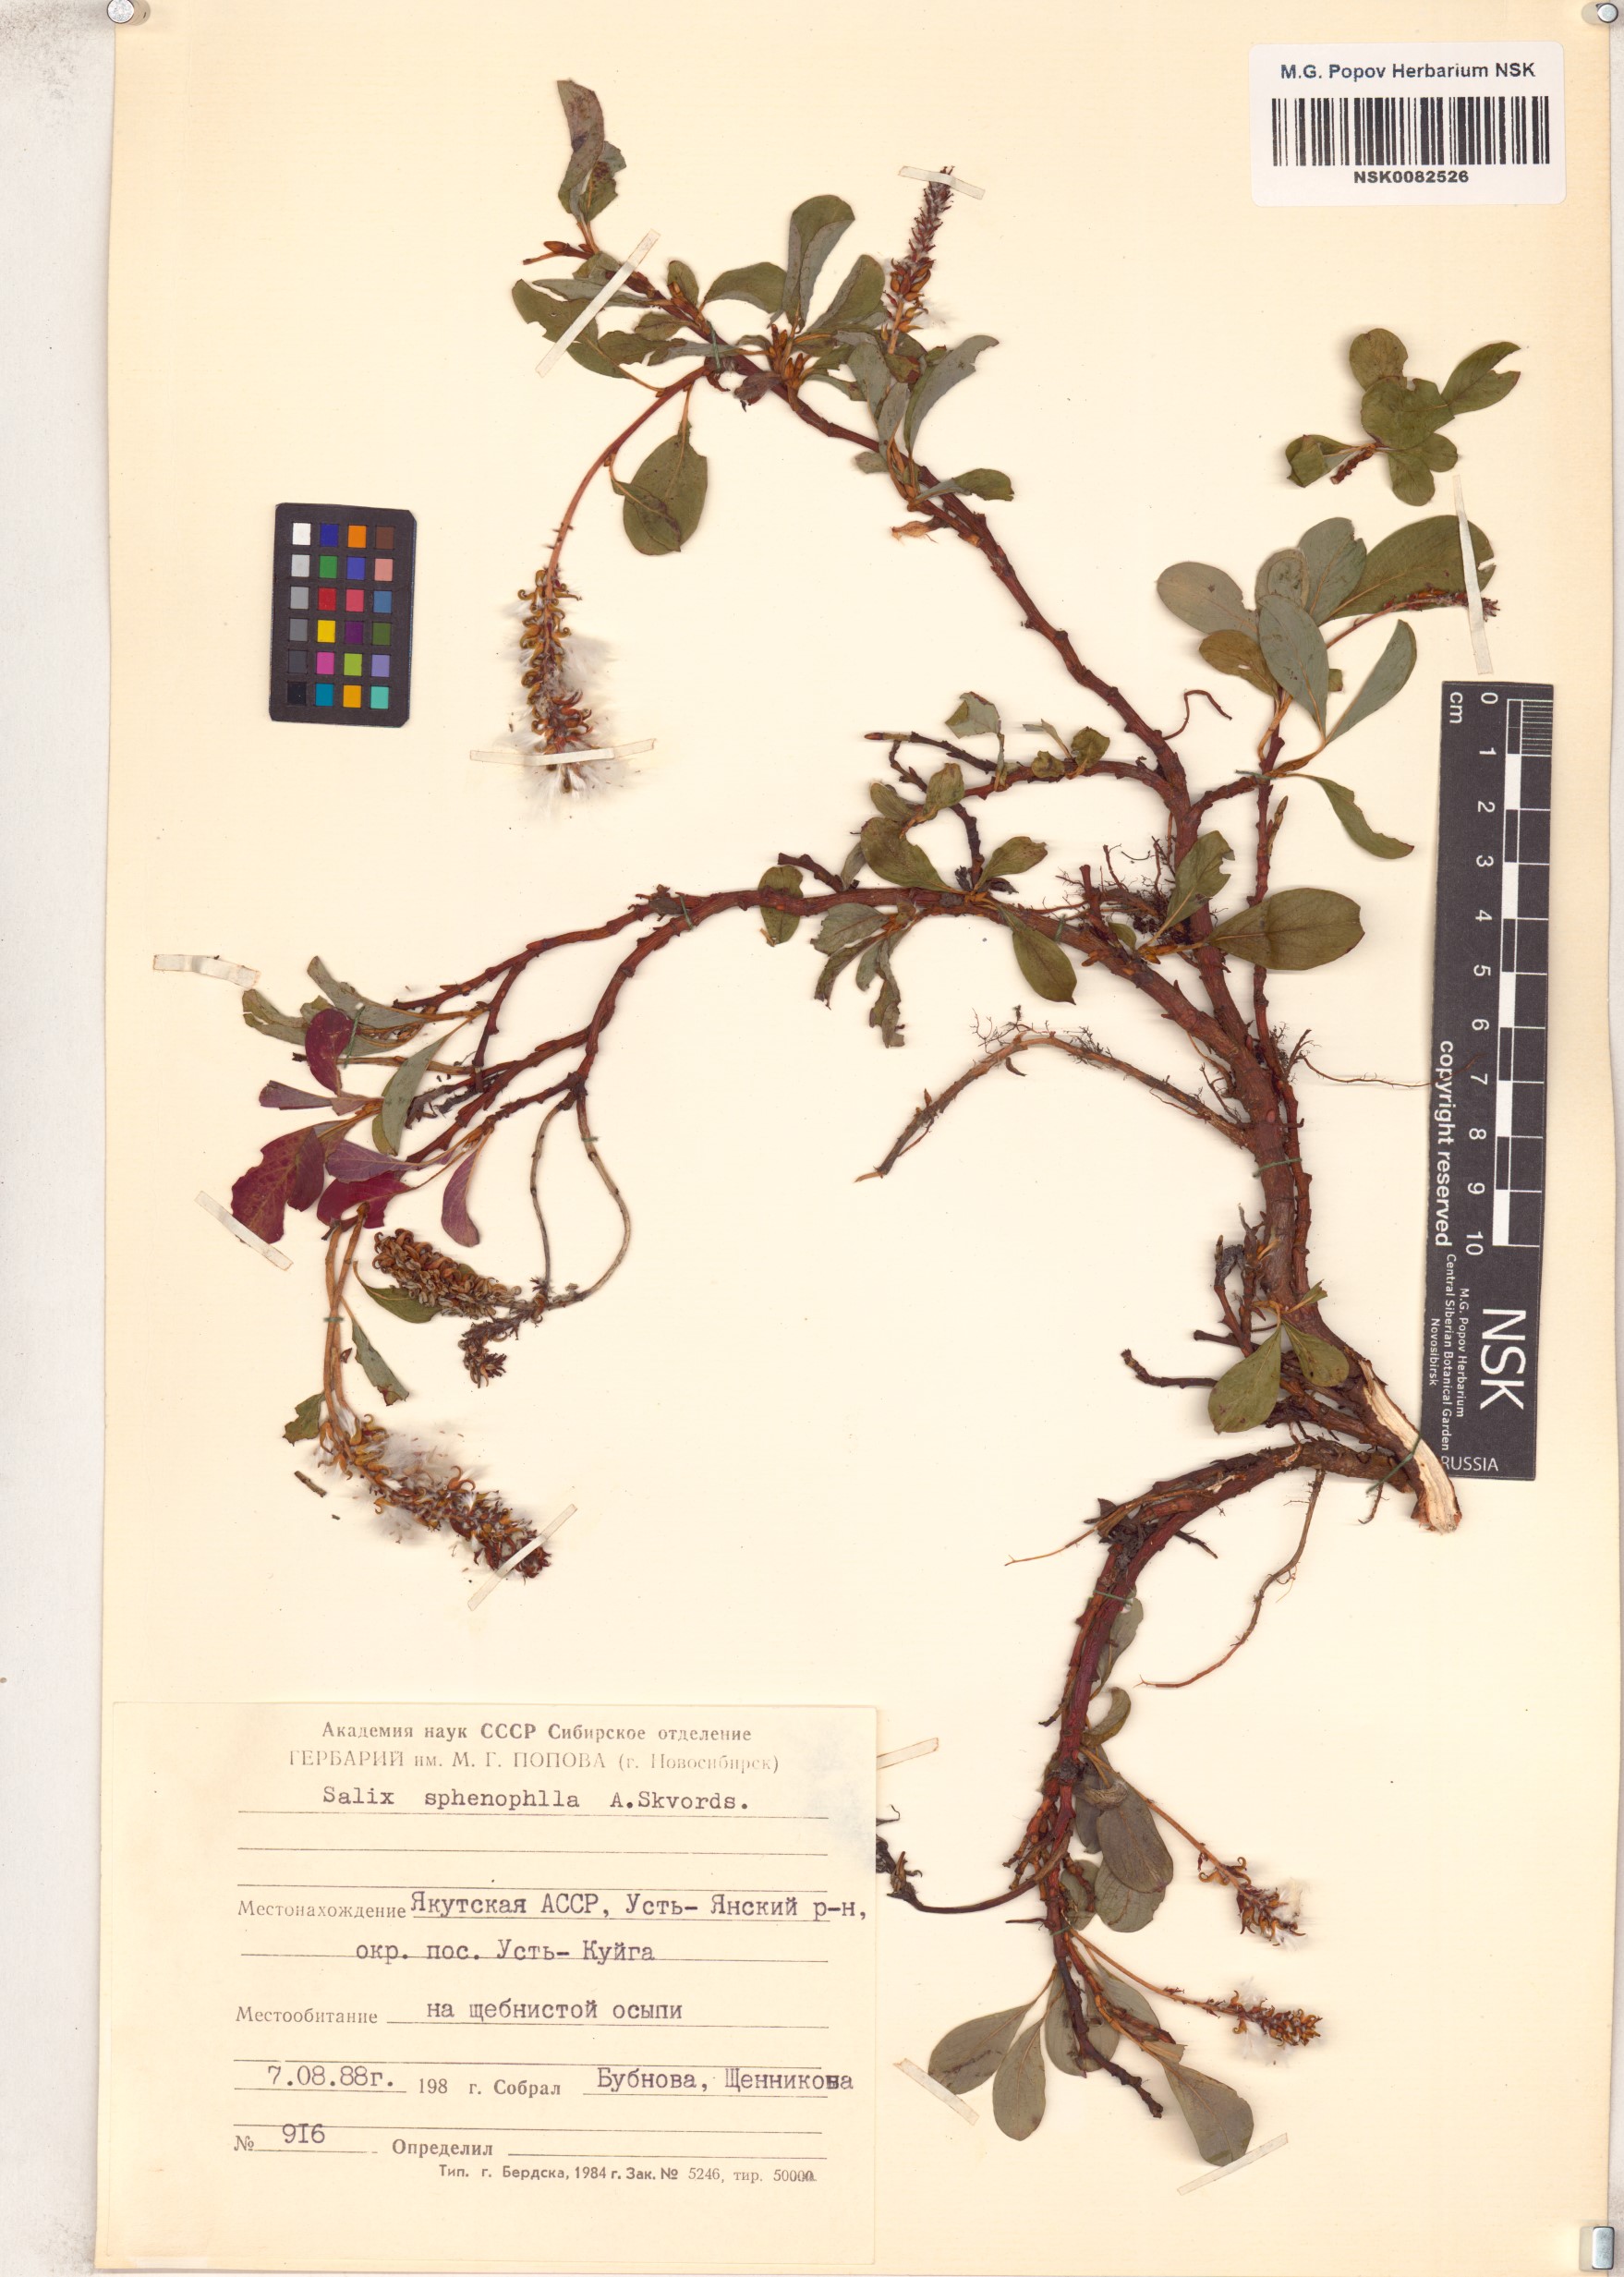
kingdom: Plantae
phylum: Tracheophyta
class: Magnoliopsida
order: Malpighiales
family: Salicaceae
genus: Salix
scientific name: Salix sphenophylla
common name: Wedge-leaved willow
